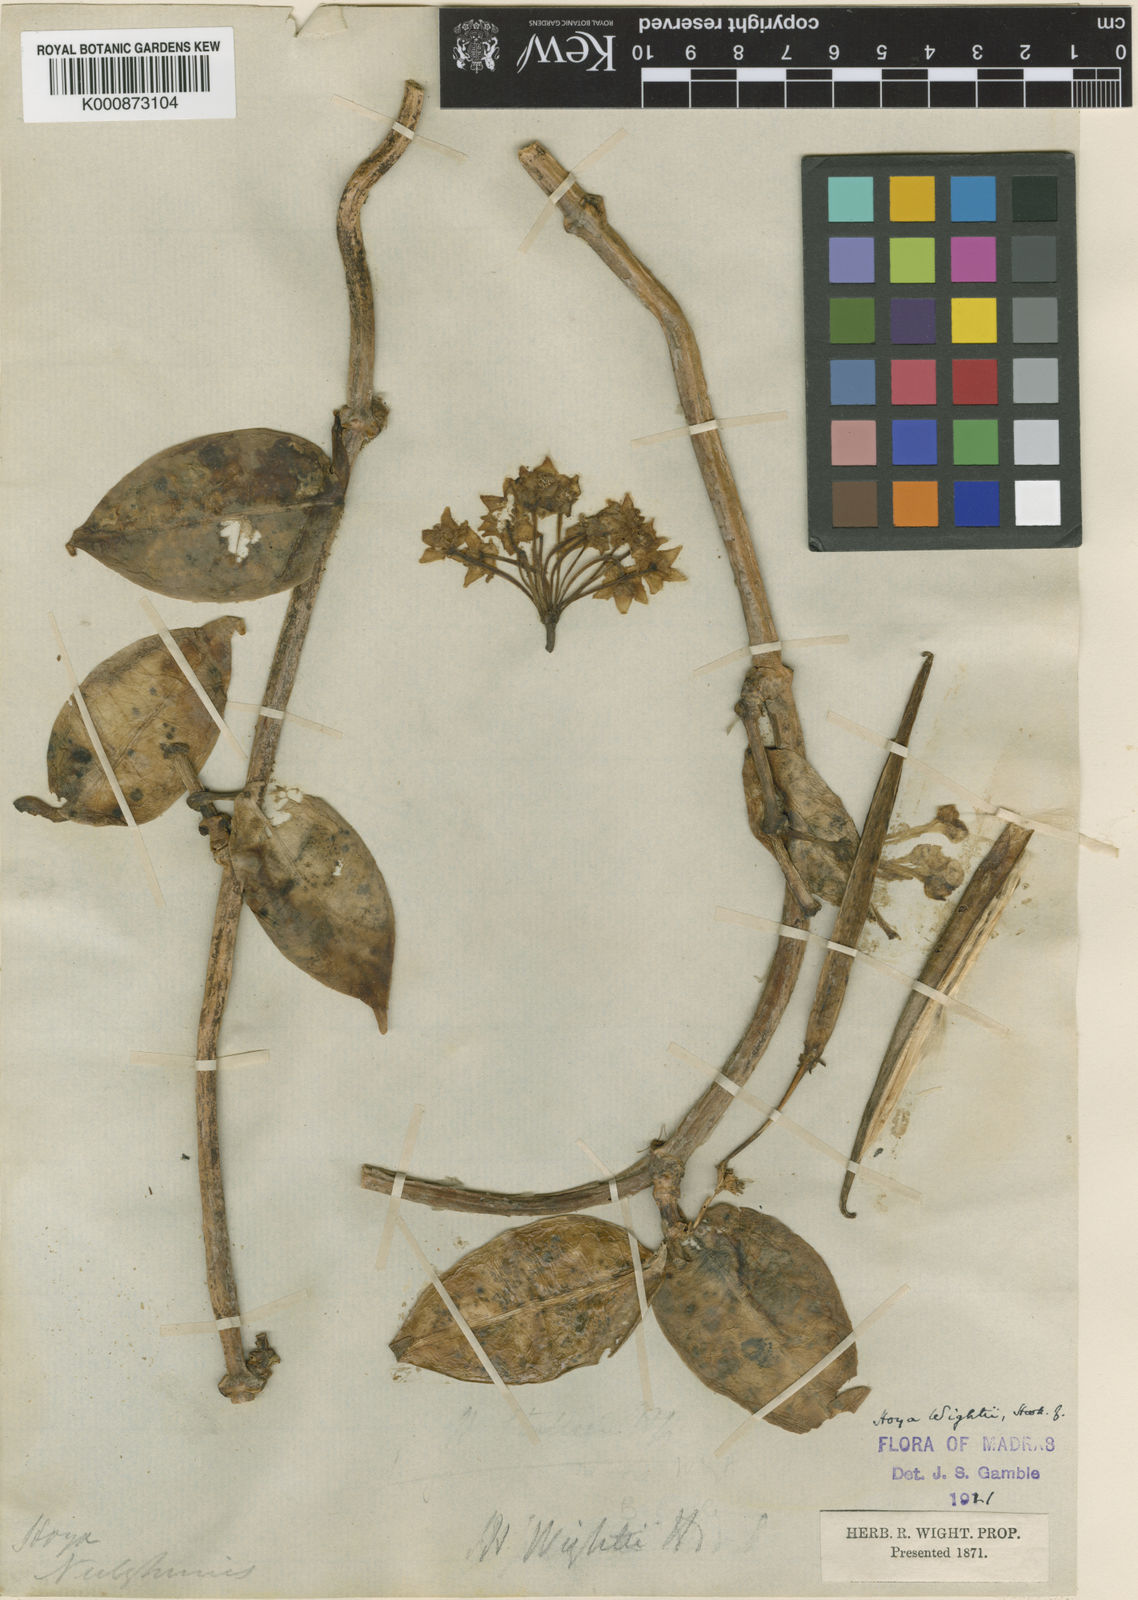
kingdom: Plantae
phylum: Tracheophyta
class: Magnoliopsida
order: Gentianales
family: Apocynaceae
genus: Hoya
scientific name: Hoya wightii
